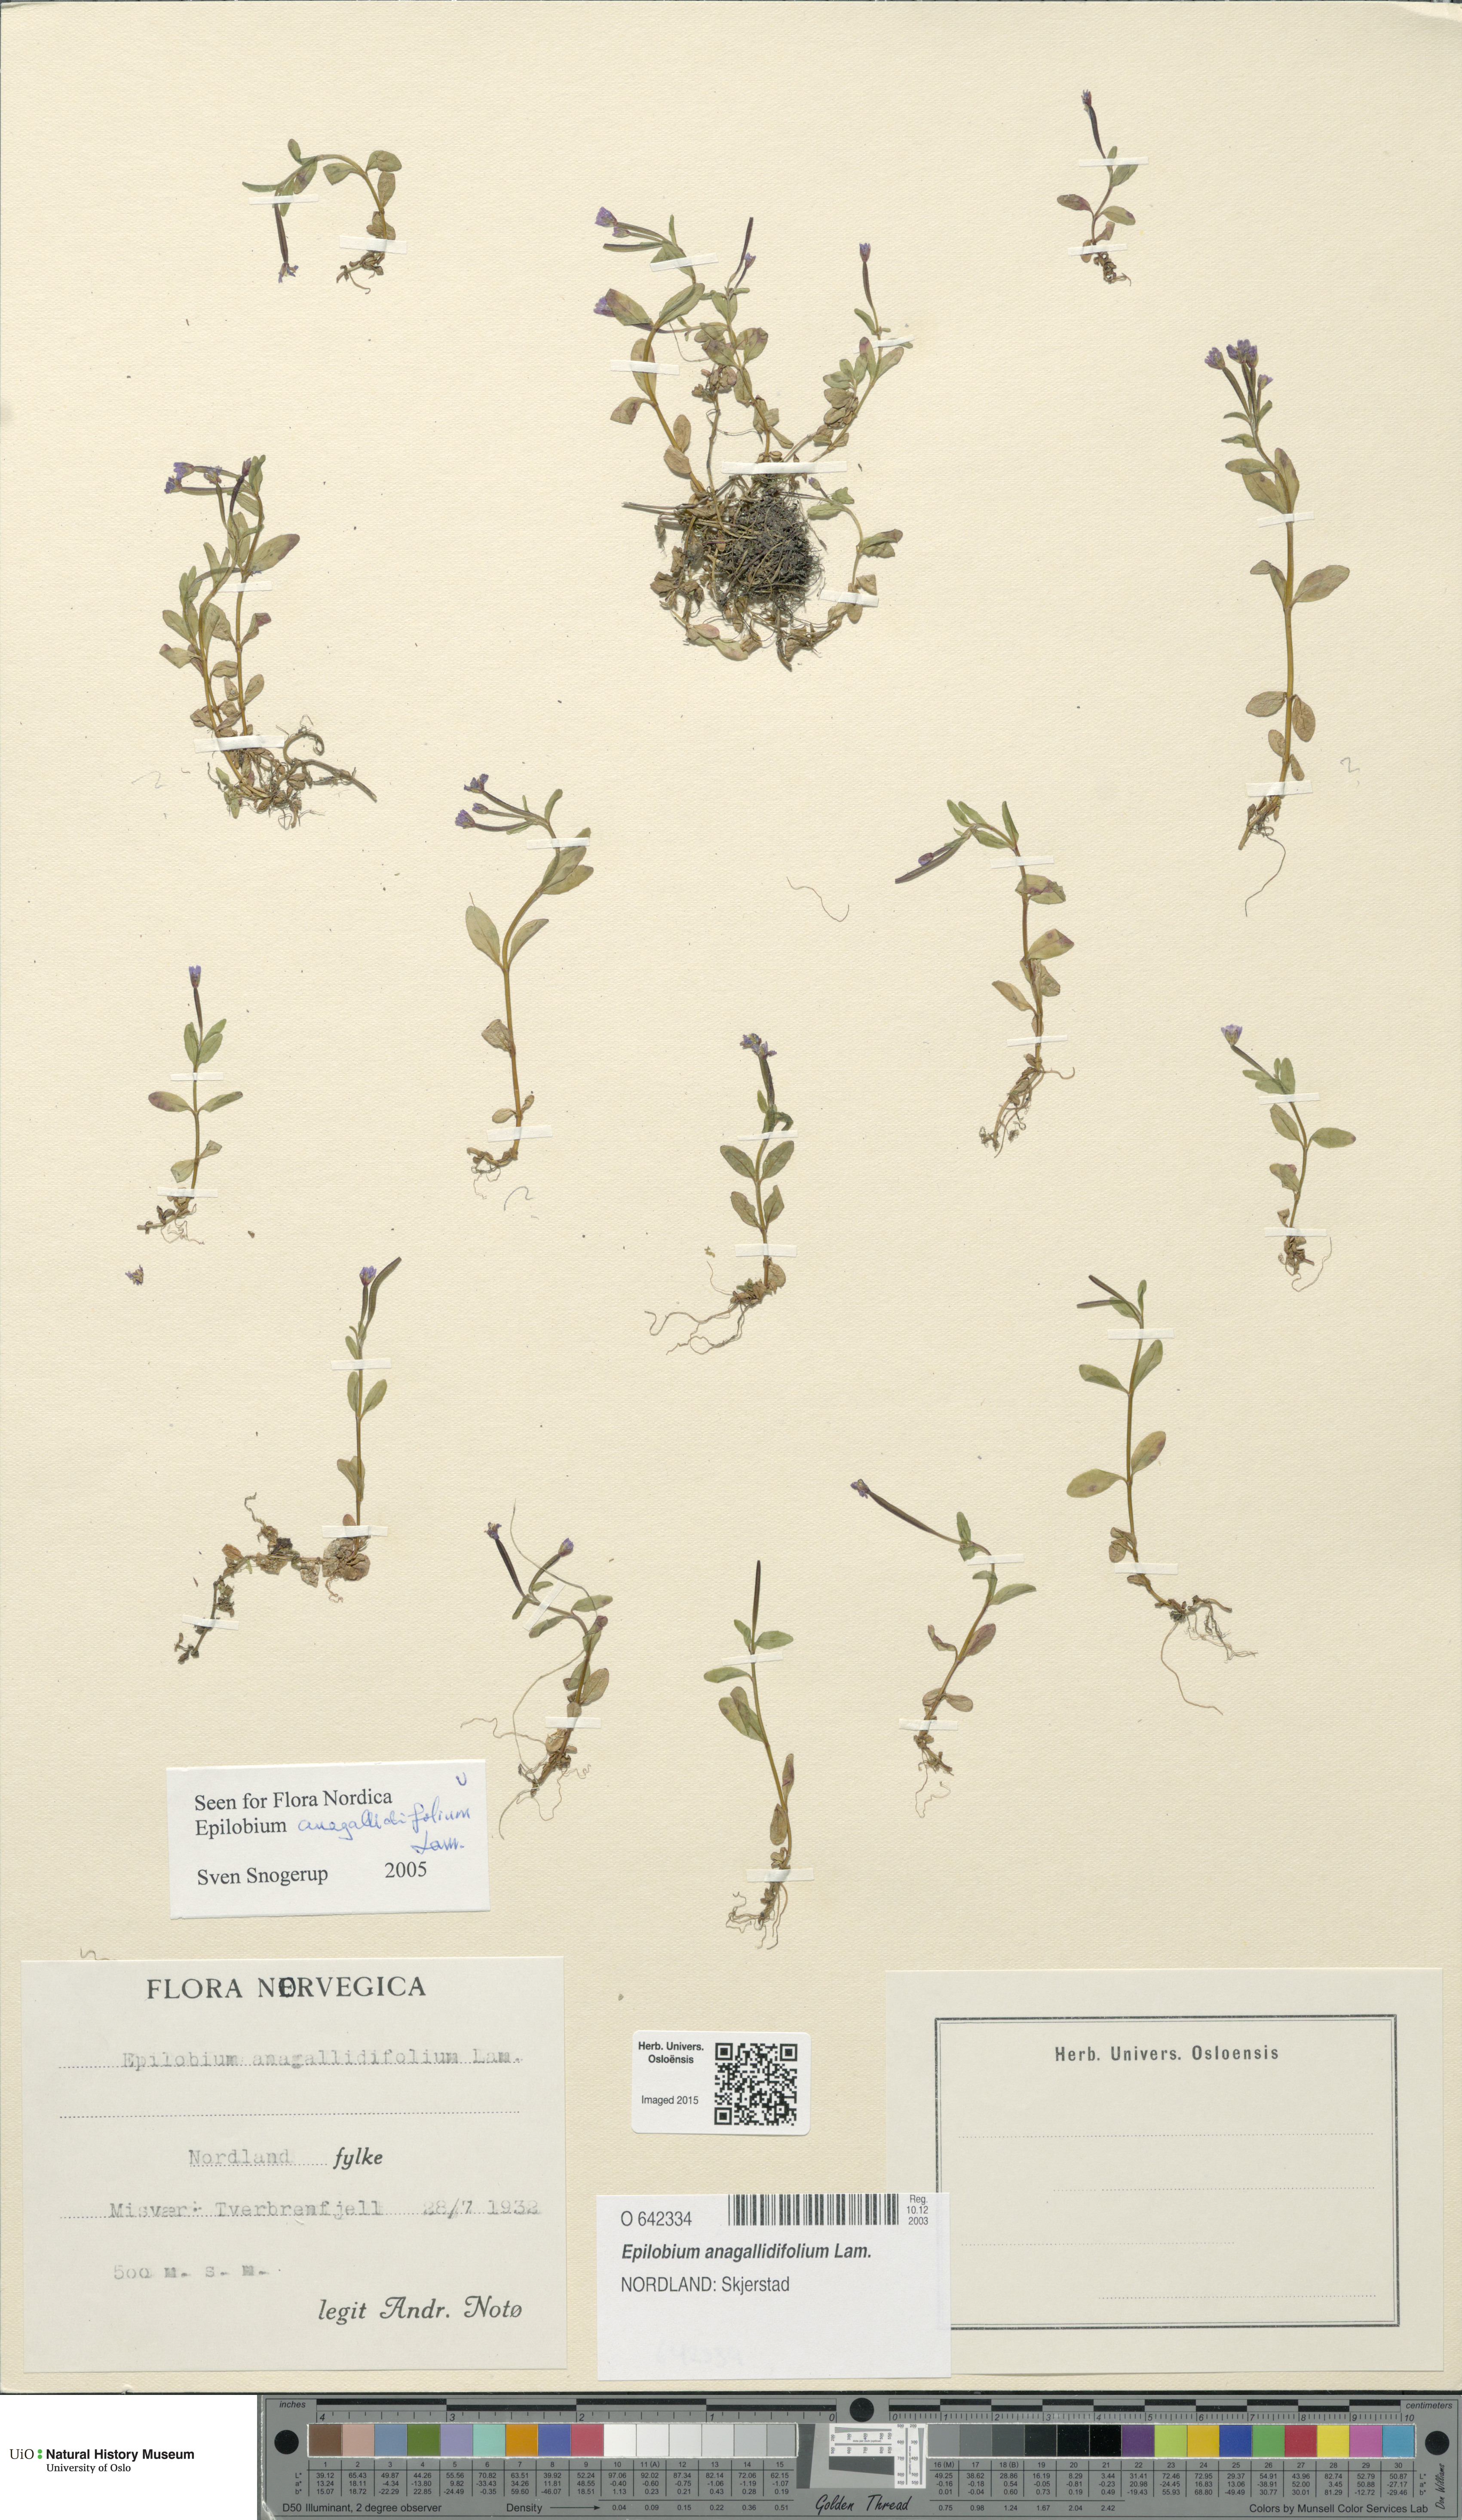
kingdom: Plantae
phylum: Tracheophyta
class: Magnoliopsida
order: Myrtales
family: Onagraceae
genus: Epilobium
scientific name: Epilobium anagallidifolium
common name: Alpine willowherb
